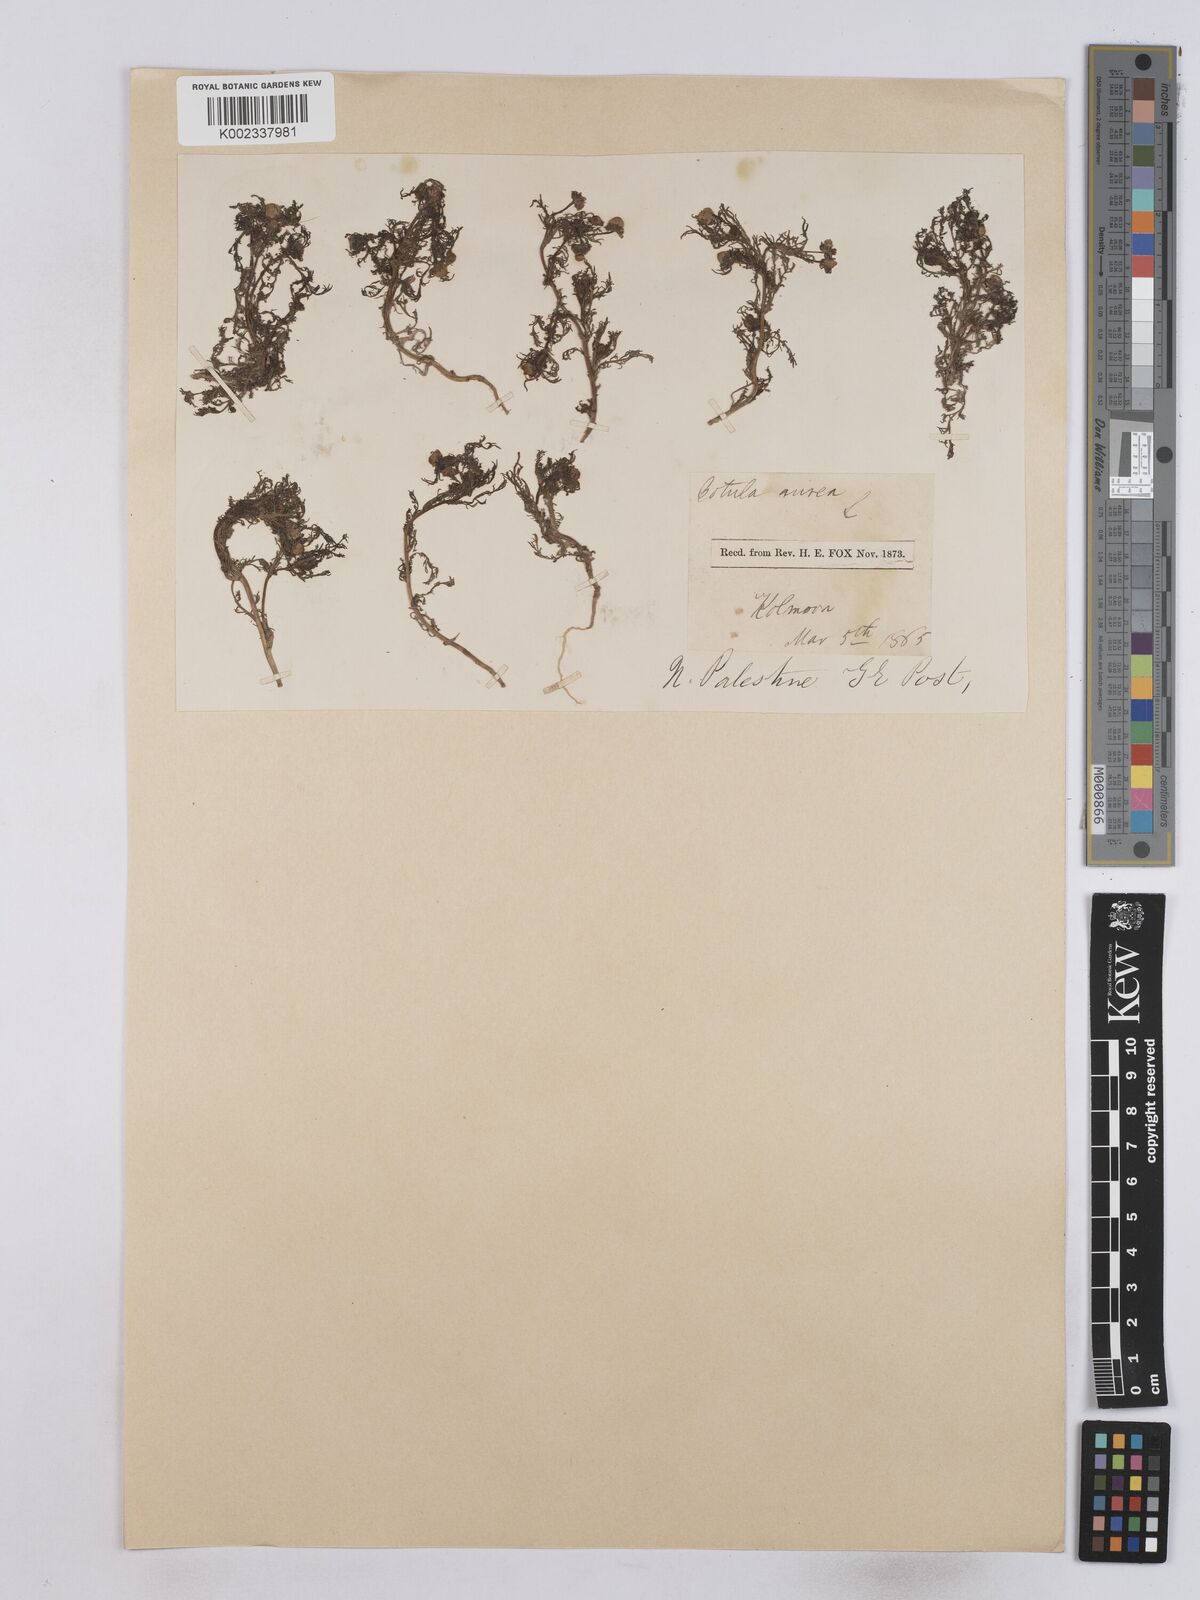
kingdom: Plantae
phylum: Tracheophyta
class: Magnoliopsida
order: Asterales
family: Asteraceae
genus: Matricaria
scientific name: Matricaria aurea
